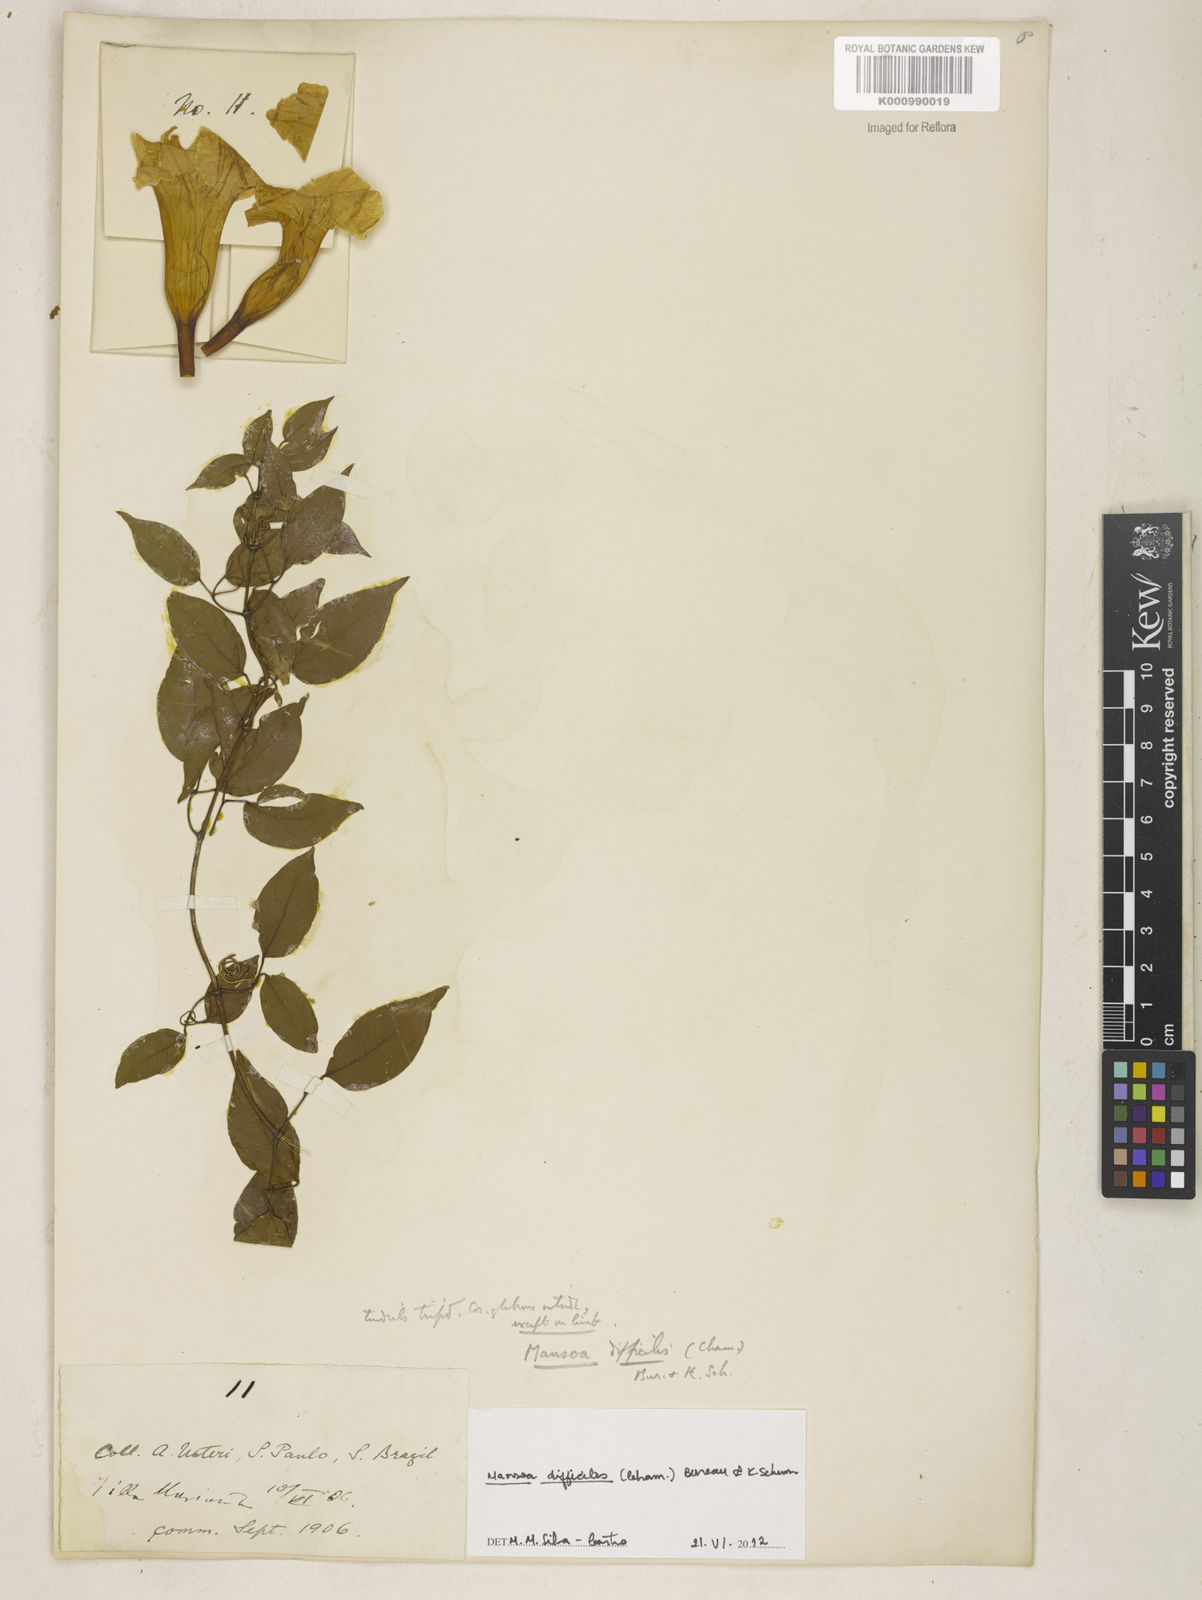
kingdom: Plantae
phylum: Tracheophyta
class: Magnoliopsida
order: Lamiales
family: Bignoniaceae
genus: Mansoa
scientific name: Mansoa difficilis
